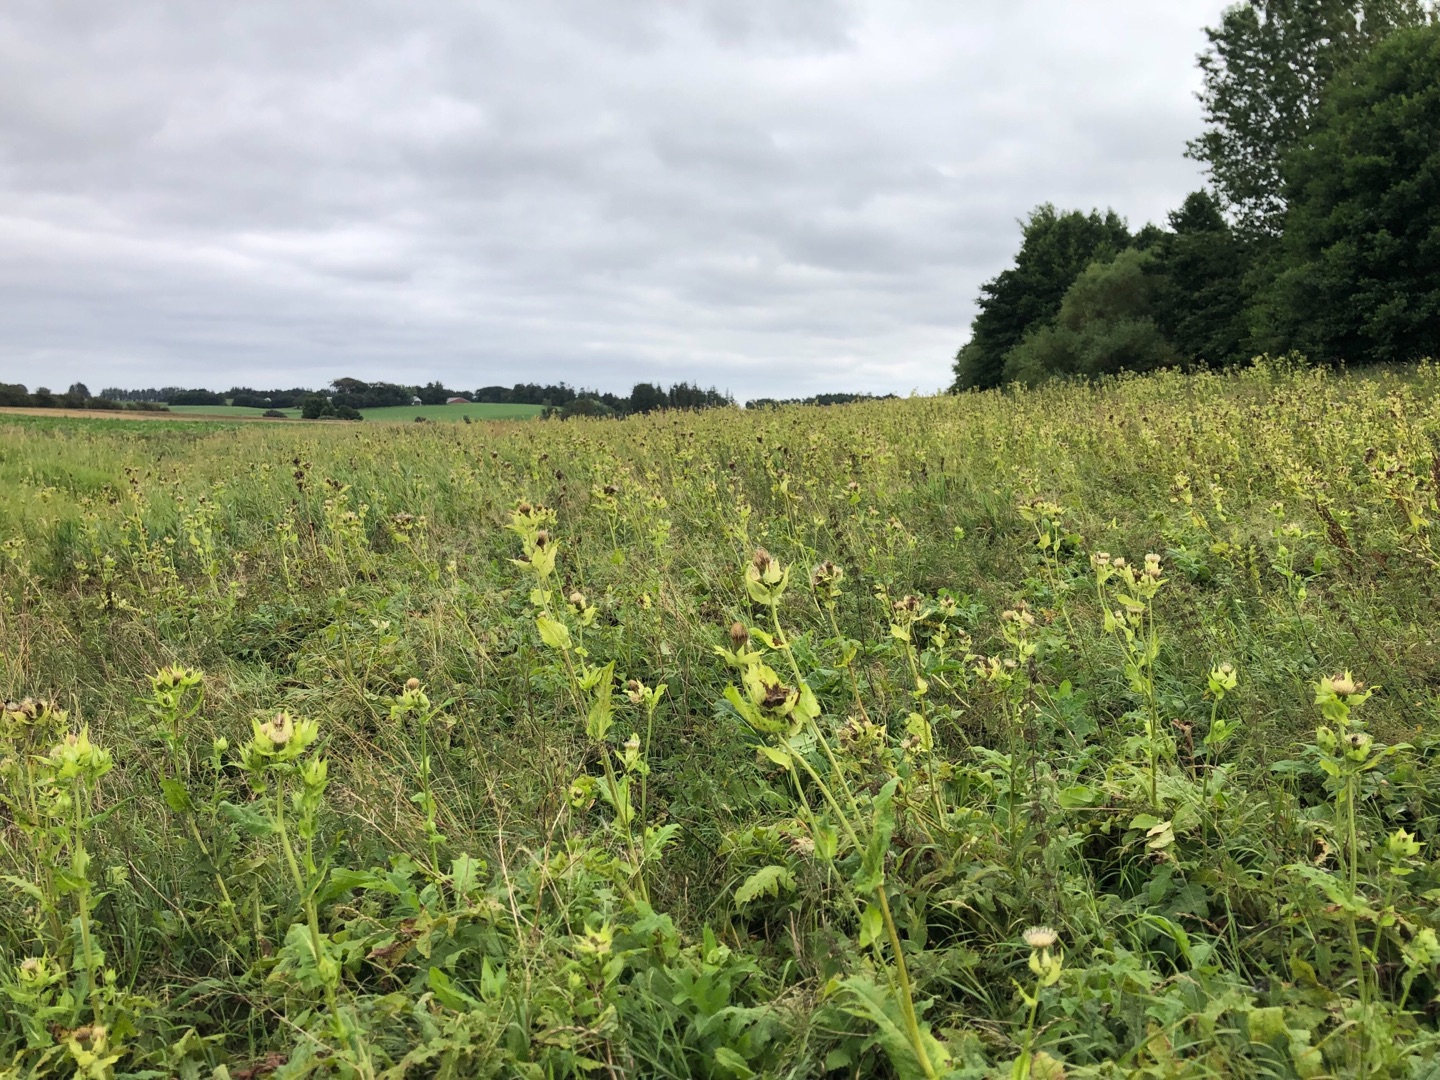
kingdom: Plantae
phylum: Tracheophyta
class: Magnoliopsida
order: Asterales
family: Asteraceae
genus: Cirsium
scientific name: Cirsium oleraceum
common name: Kål-tidsel
